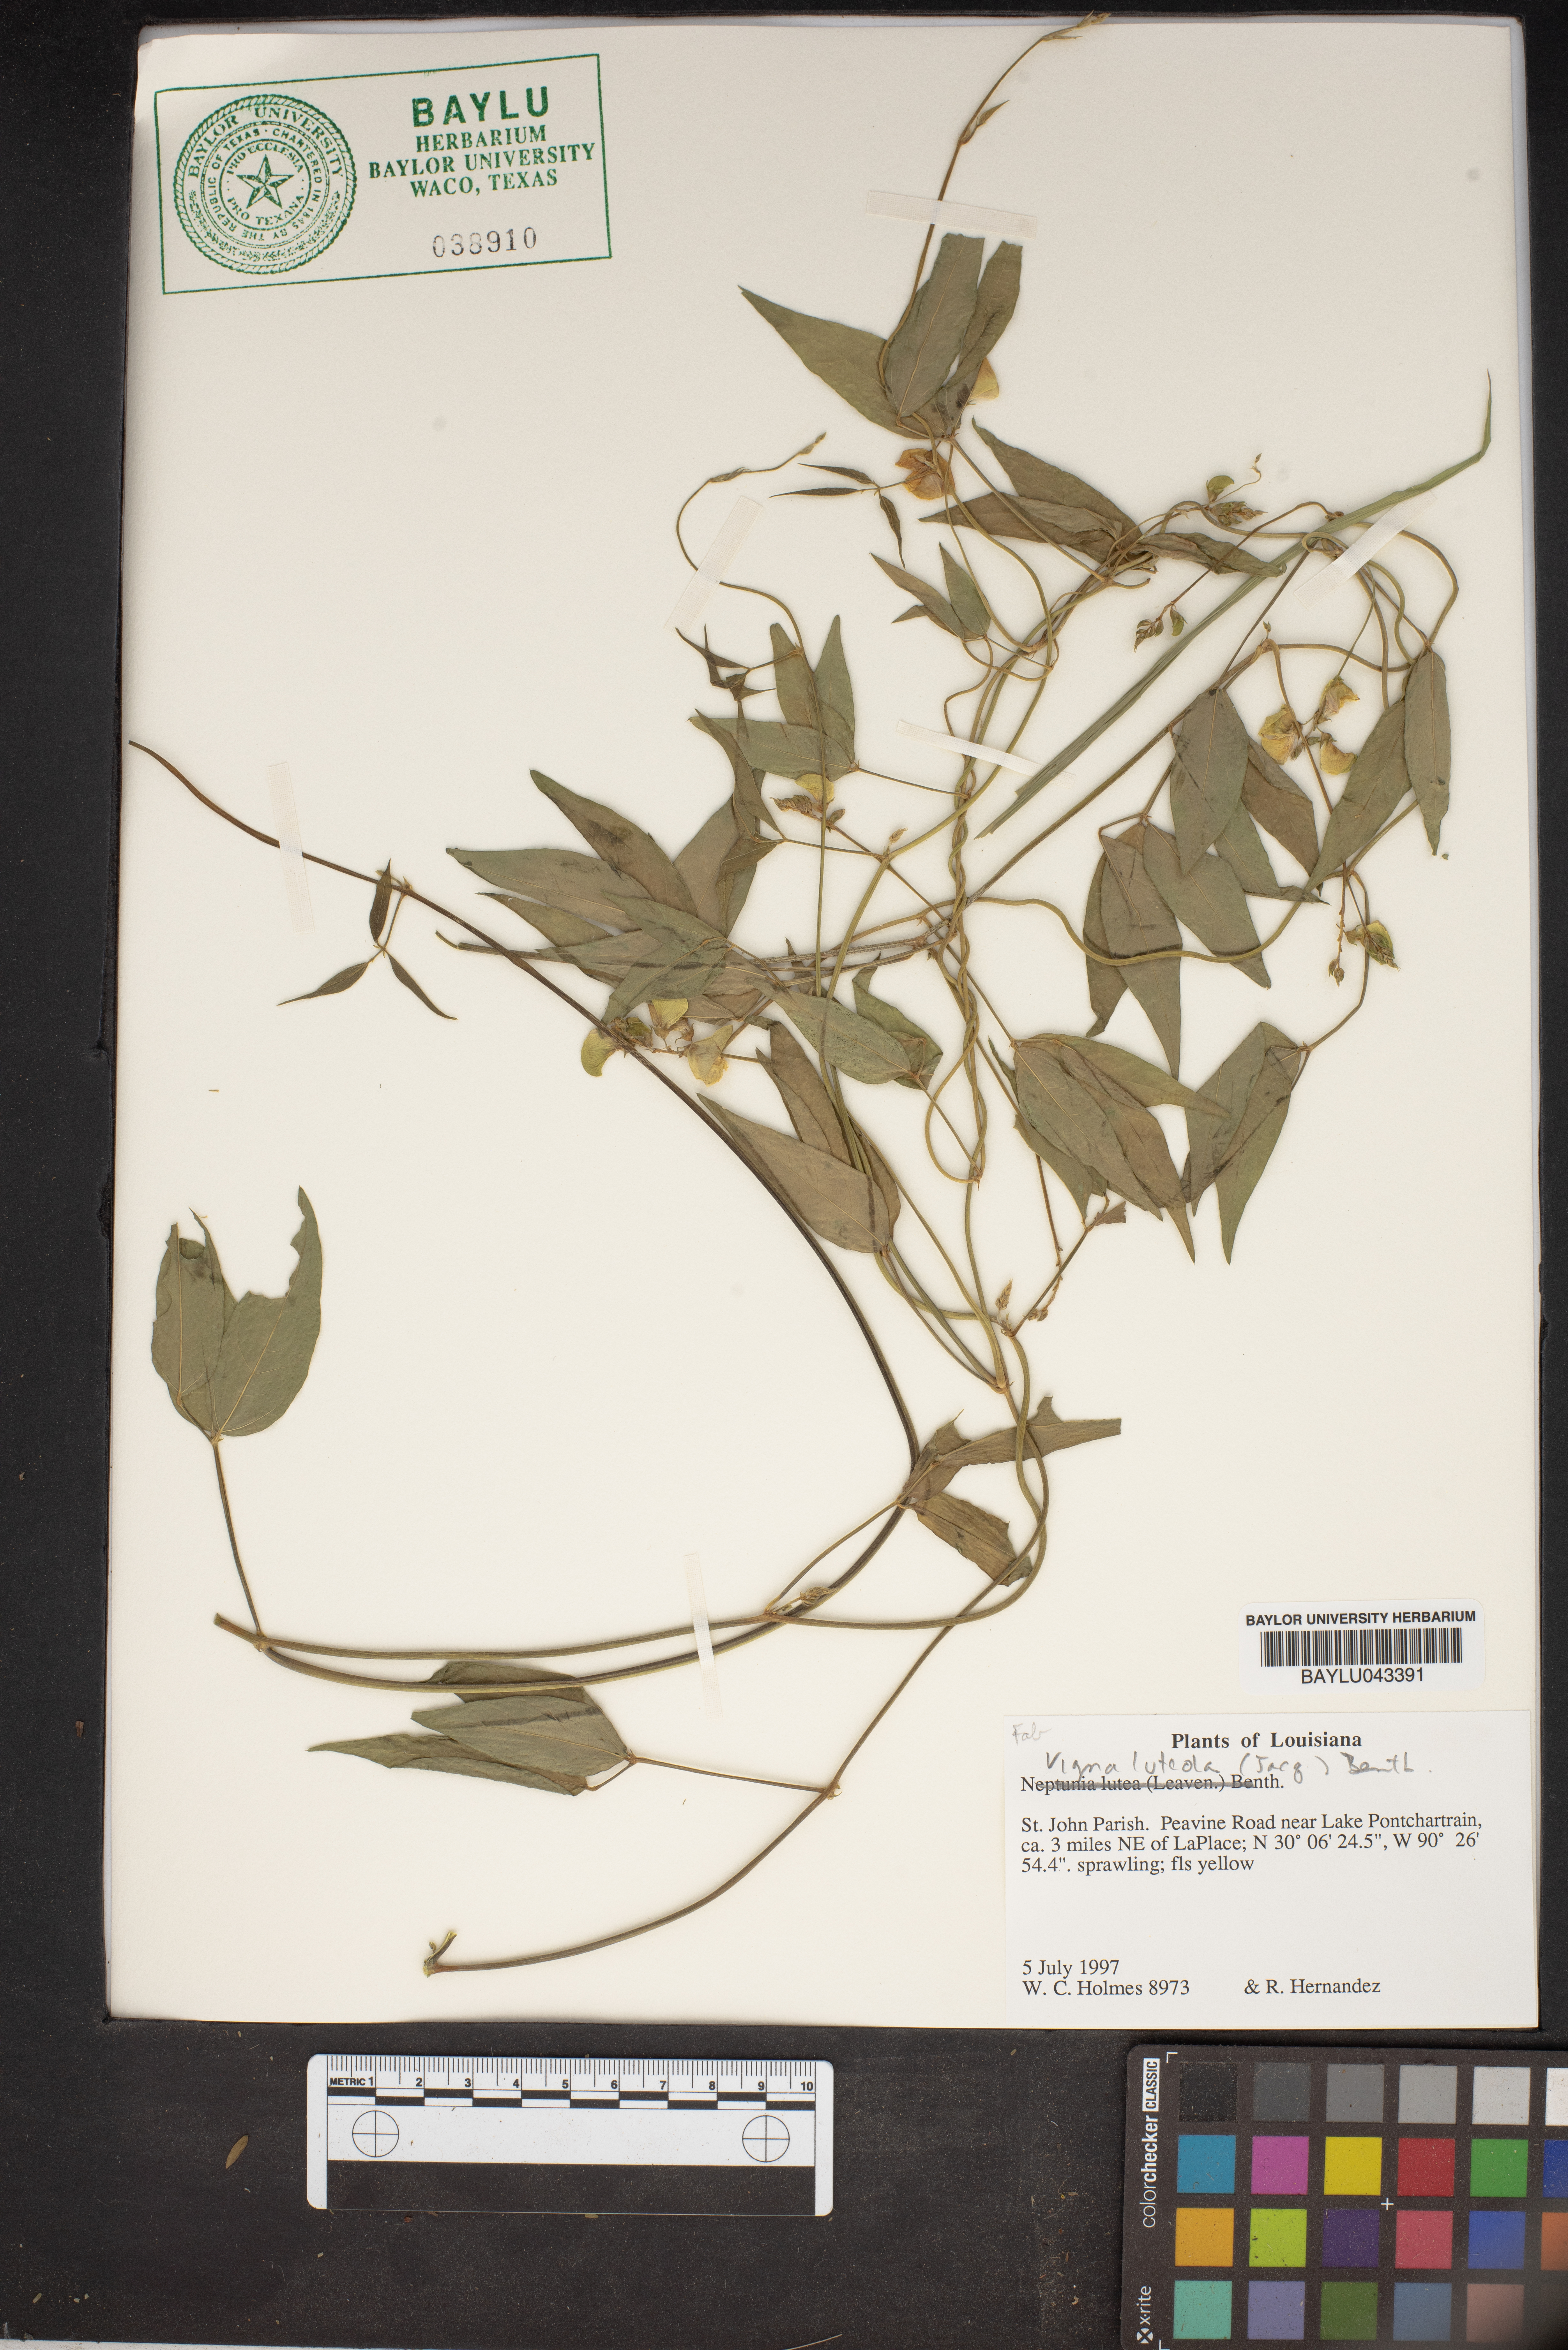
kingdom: Plantae
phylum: Tracheophyta
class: Magnoliopsida
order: Fabales
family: Fabaceae
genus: Vigna
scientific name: Vigna luteola
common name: Hairypod cowpea
